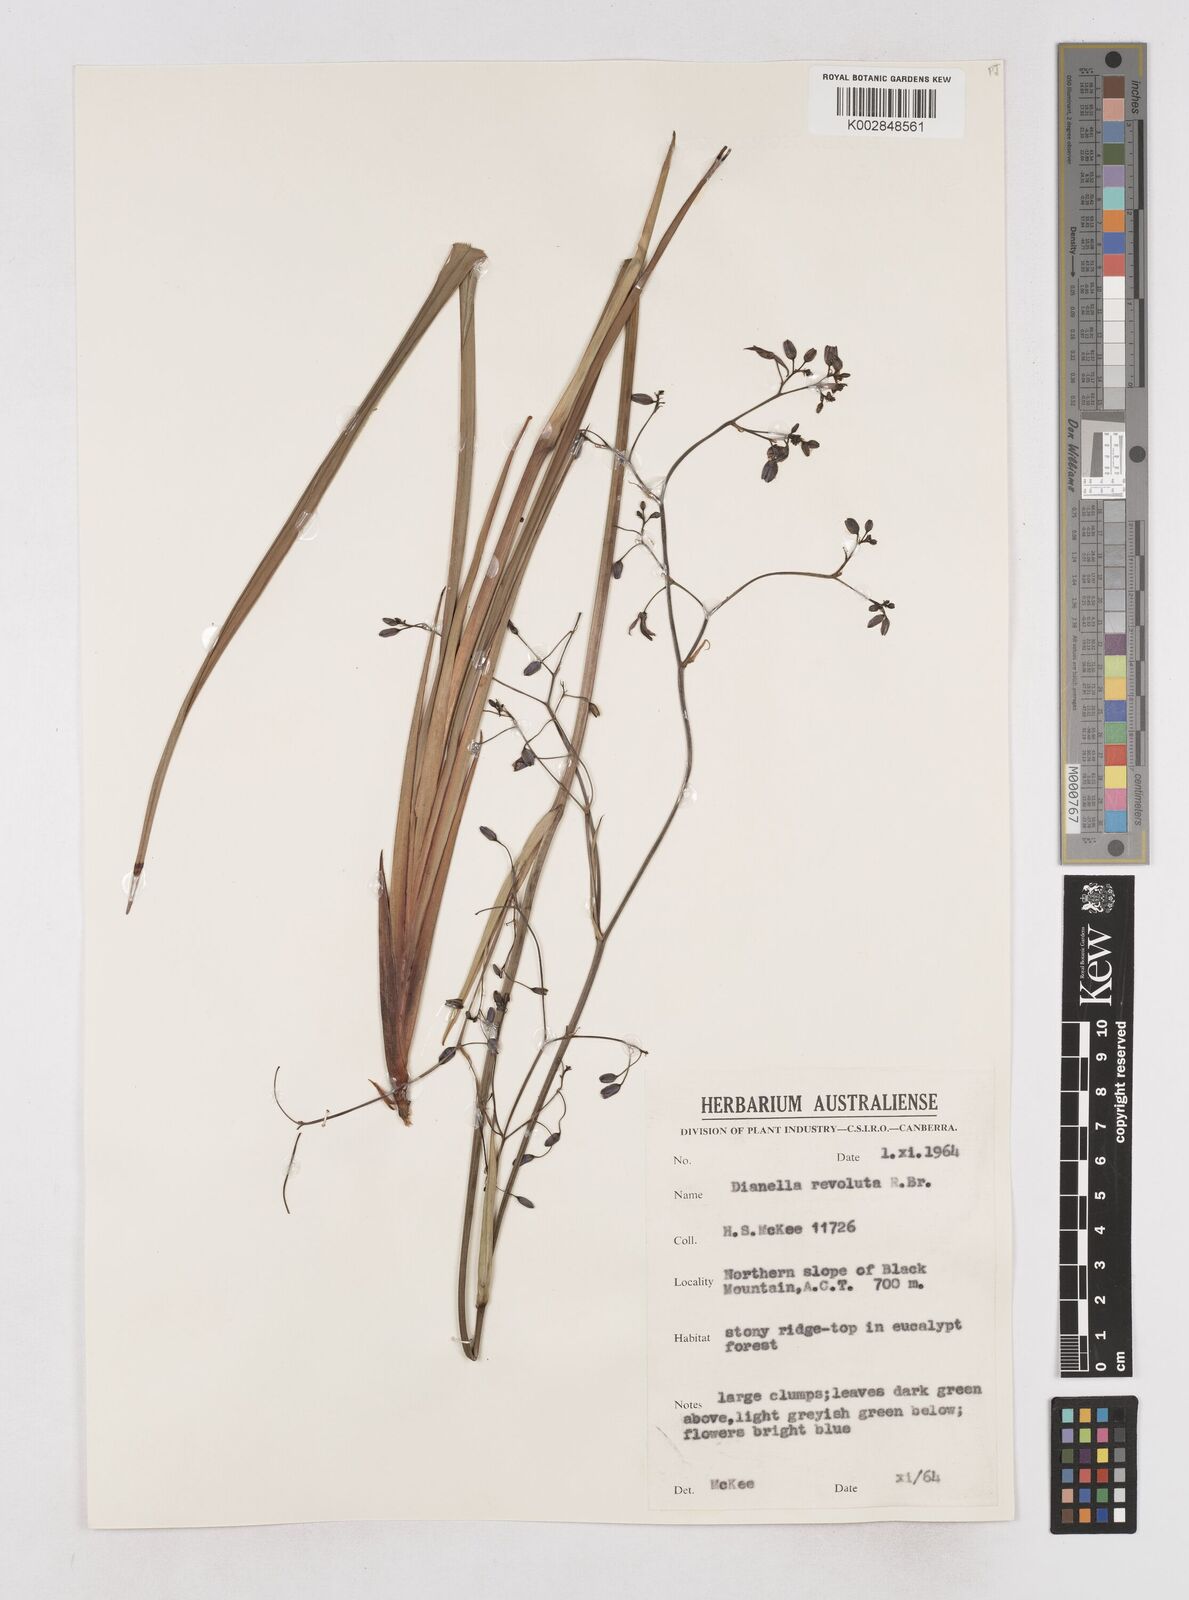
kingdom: Plantae
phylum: Tracheophyta
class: Liliopsida
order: Asparagales
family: Asphodelaceae
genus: Dianella
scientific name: Dianella revoluta
